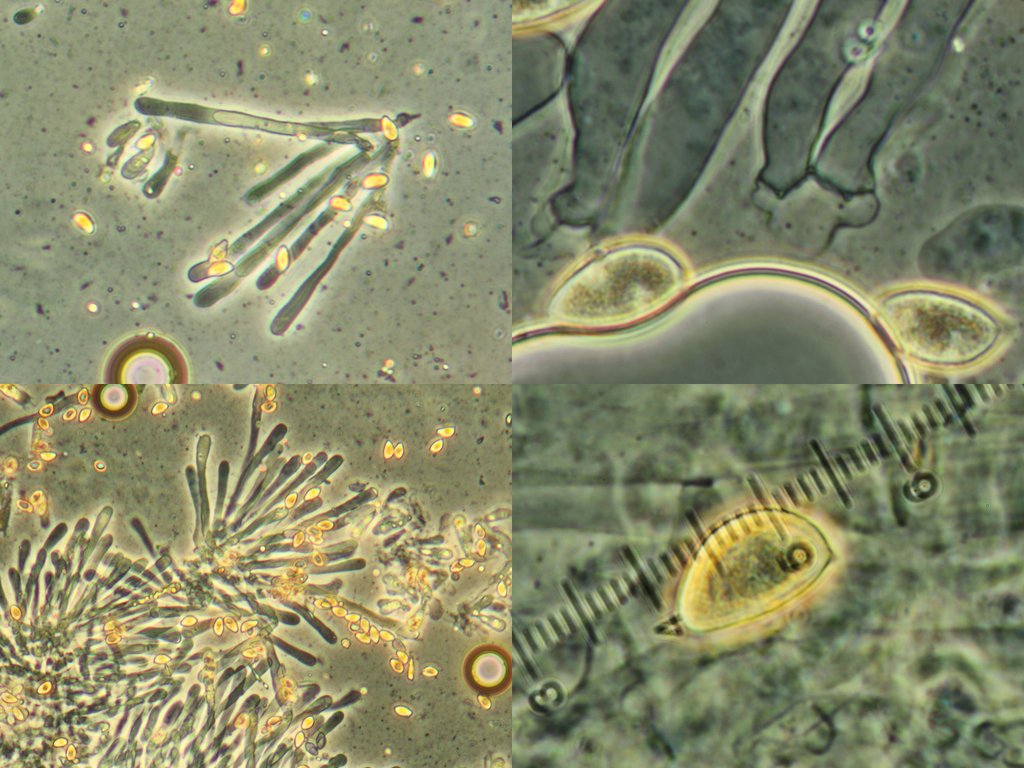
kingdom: Fungi
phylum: Basidiomycota
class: Agaricomycetes
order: Agaricales
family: Hymenogastraceae
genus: Hebeloma
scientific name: Hebeloma leucosarx
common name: højstokket tåreblad
